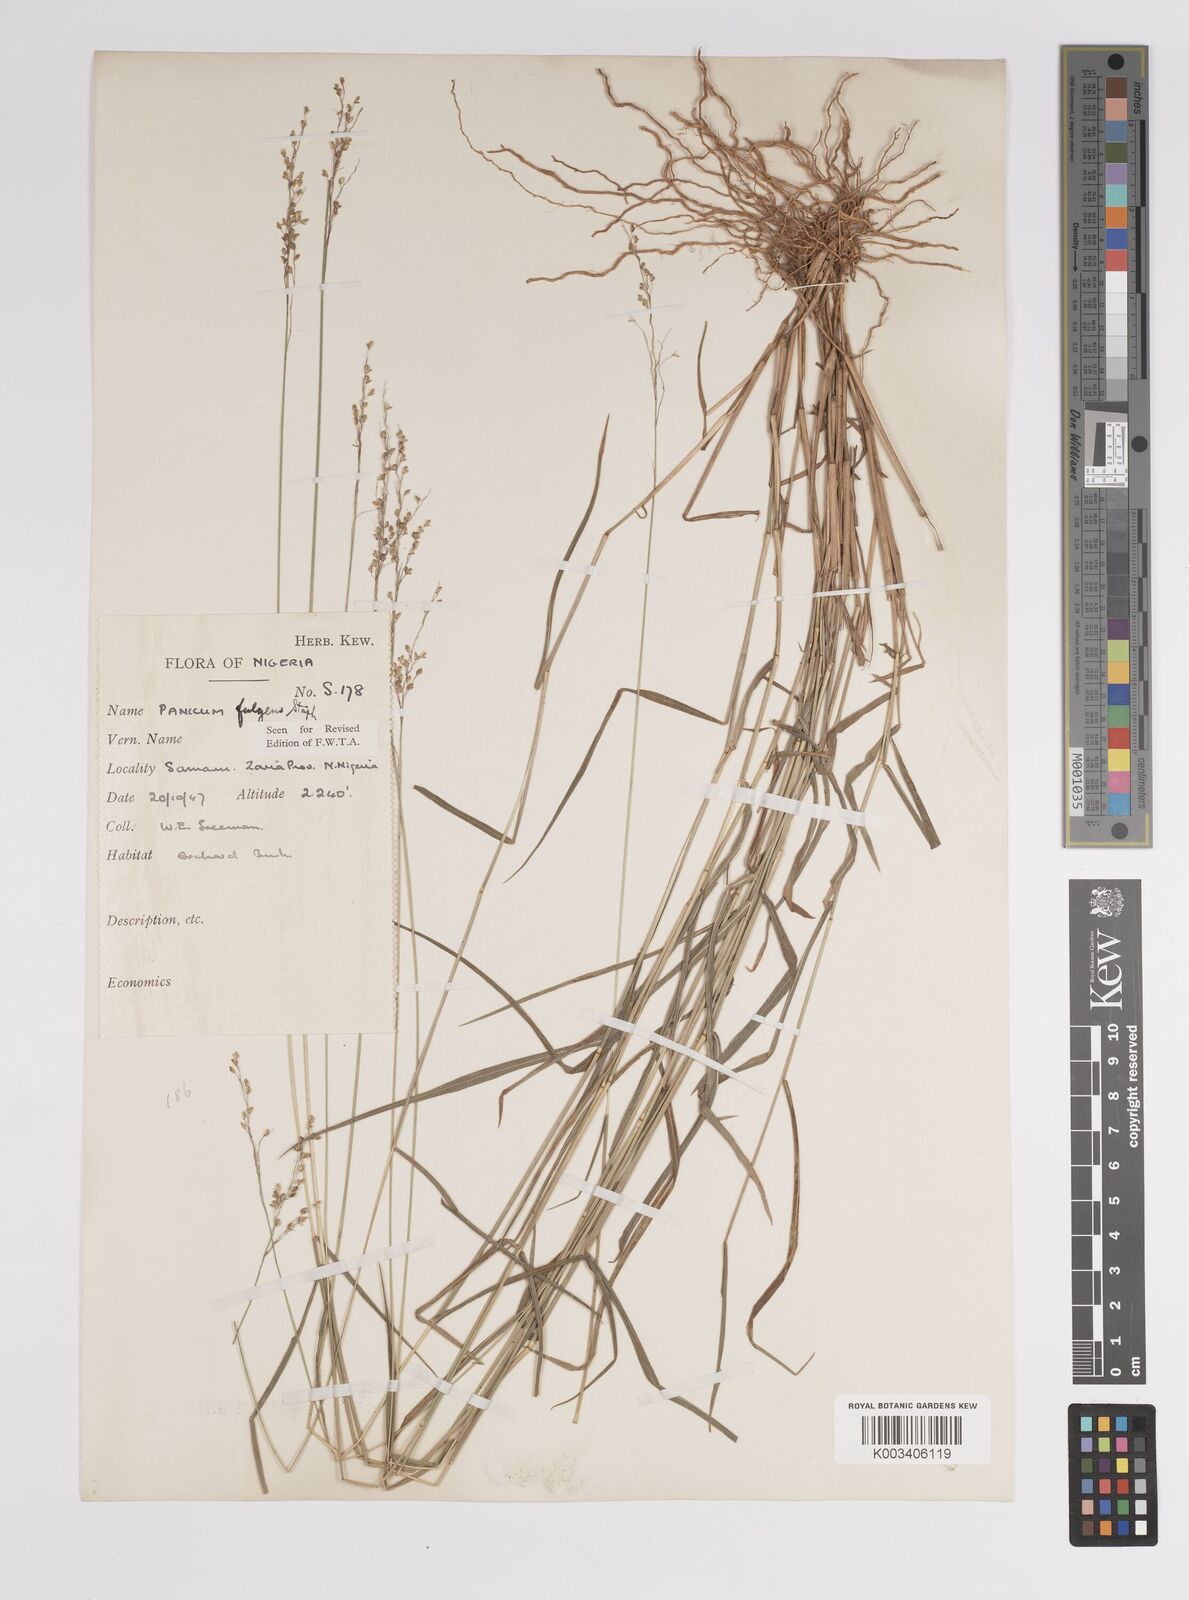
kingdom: Plantae
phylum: Tracheophyta
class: Liliopsida
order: Poales
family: Poaceae
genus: Trichanthecium
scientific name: Trichanthecium nervatum
